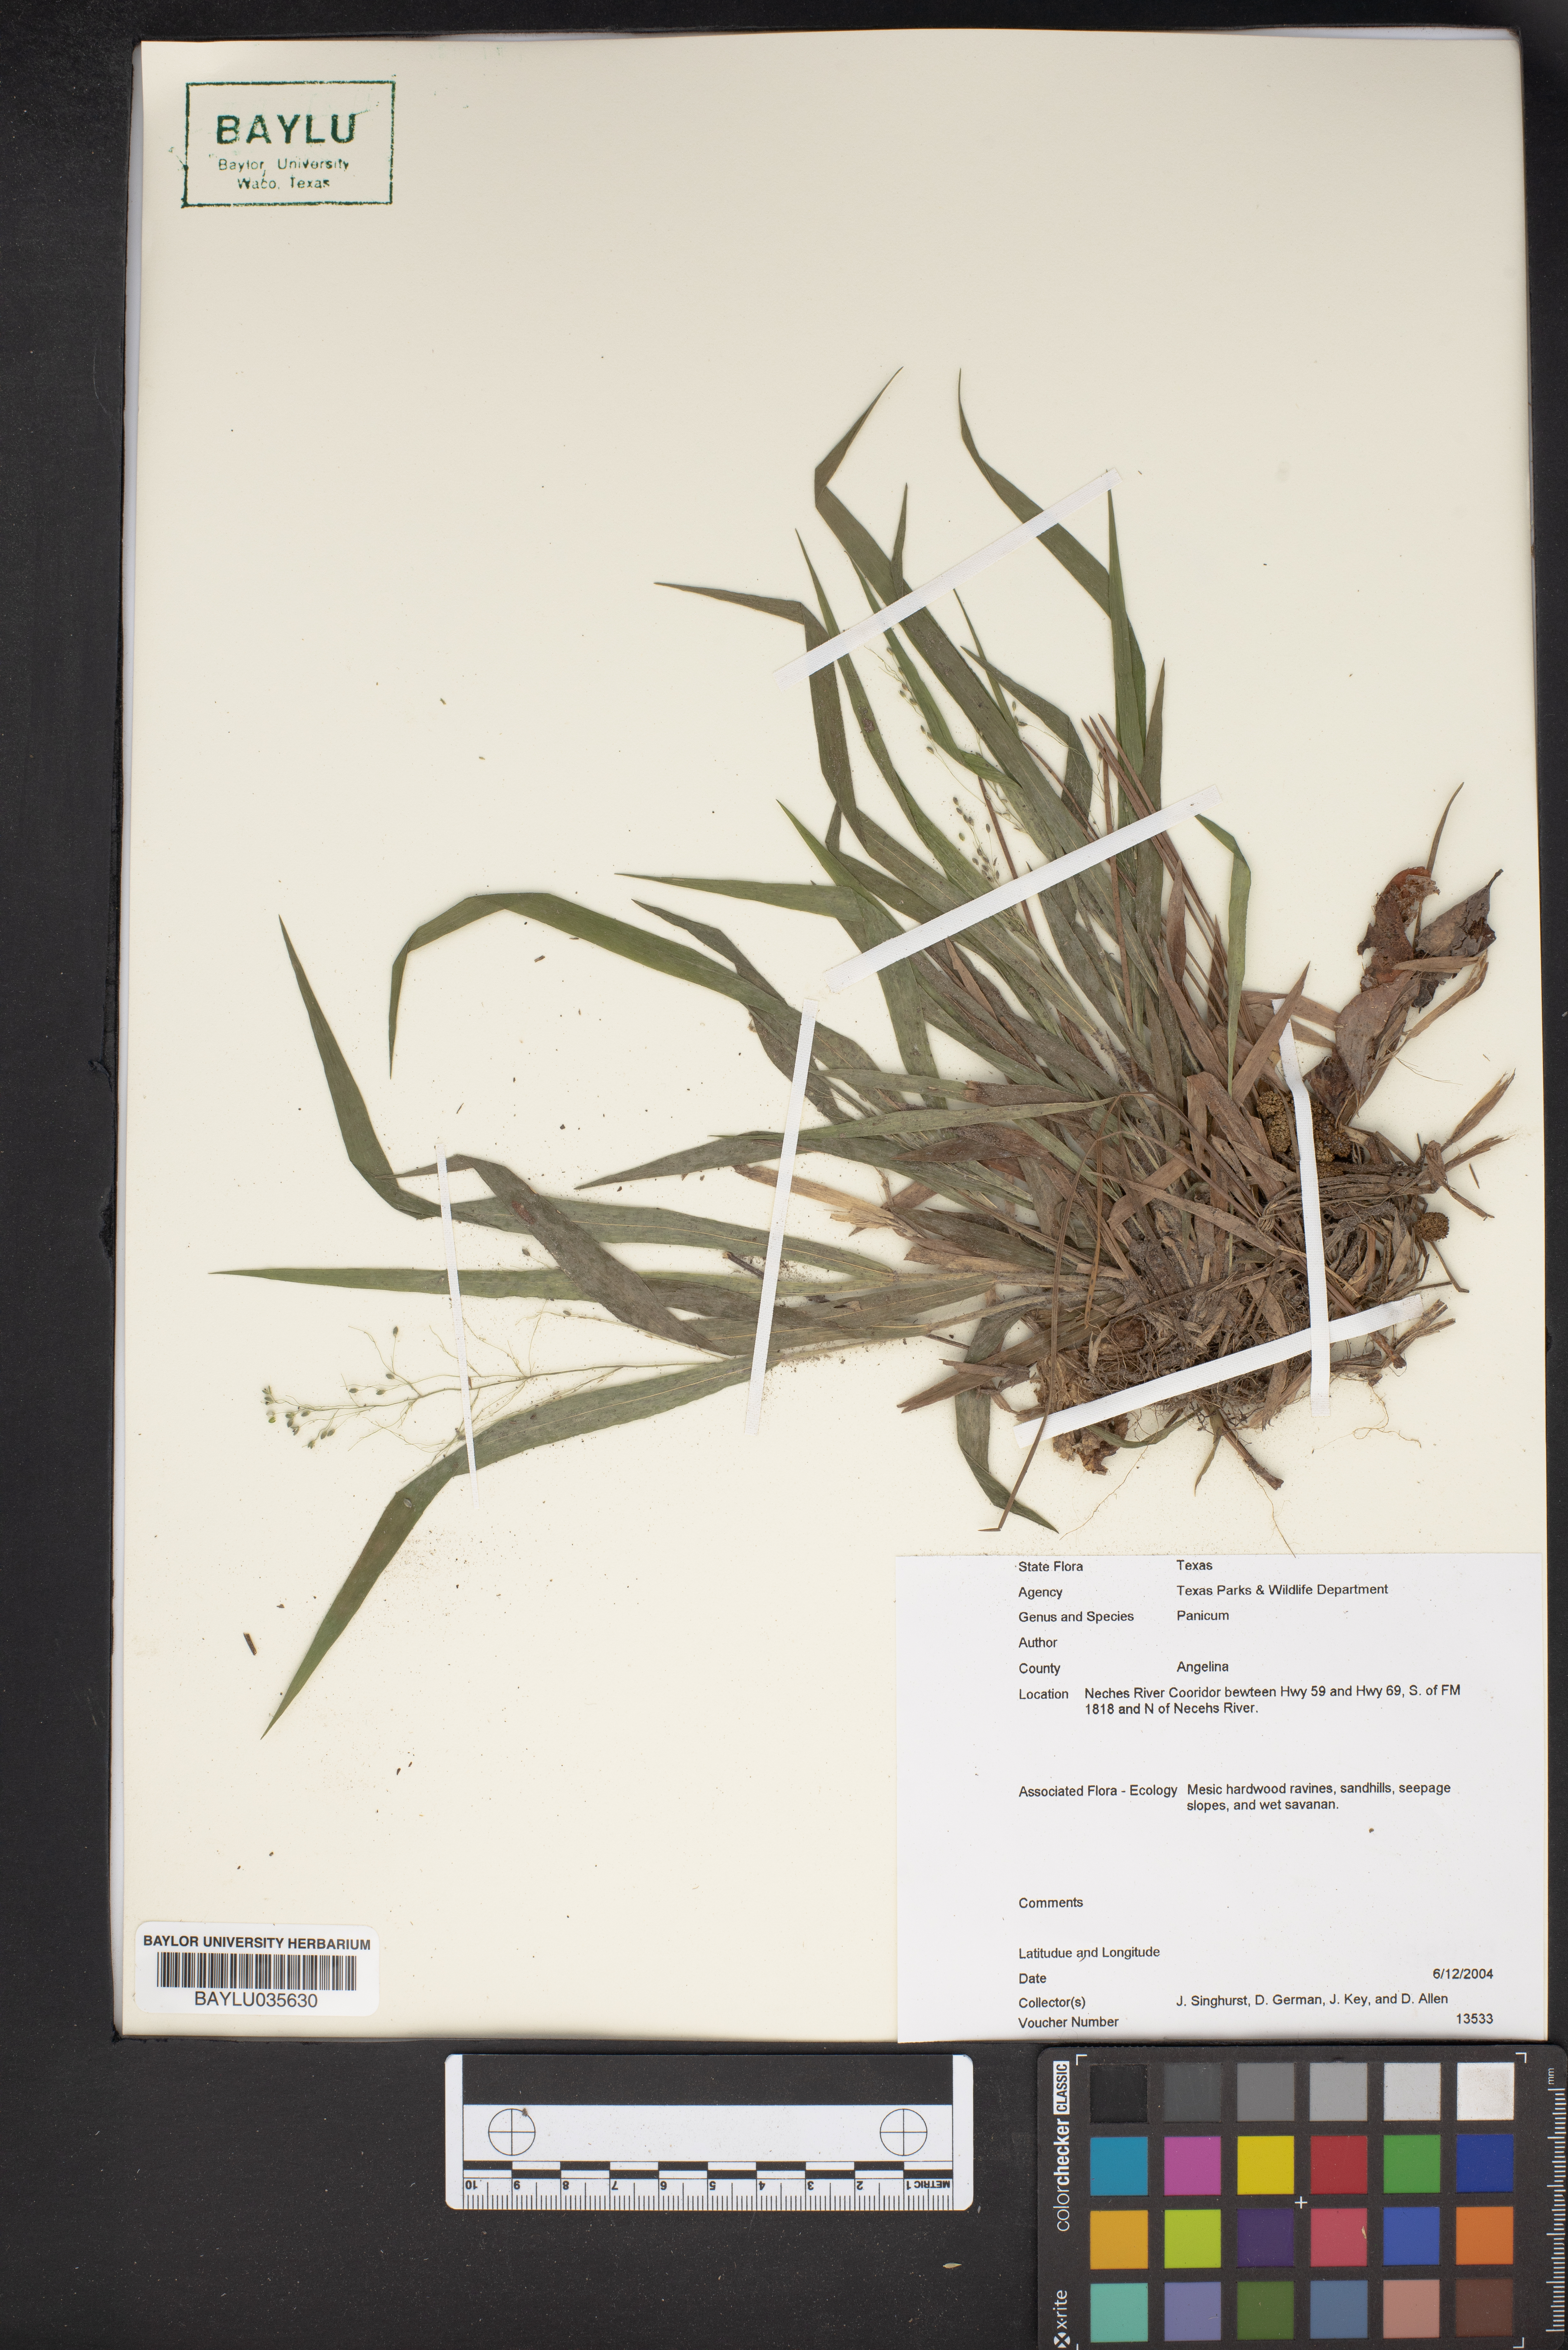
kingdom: Plantae
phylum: Tracheophyta
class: Liliopsida
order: Poales
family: Poaceae
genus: Panicum
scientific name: Panicum
